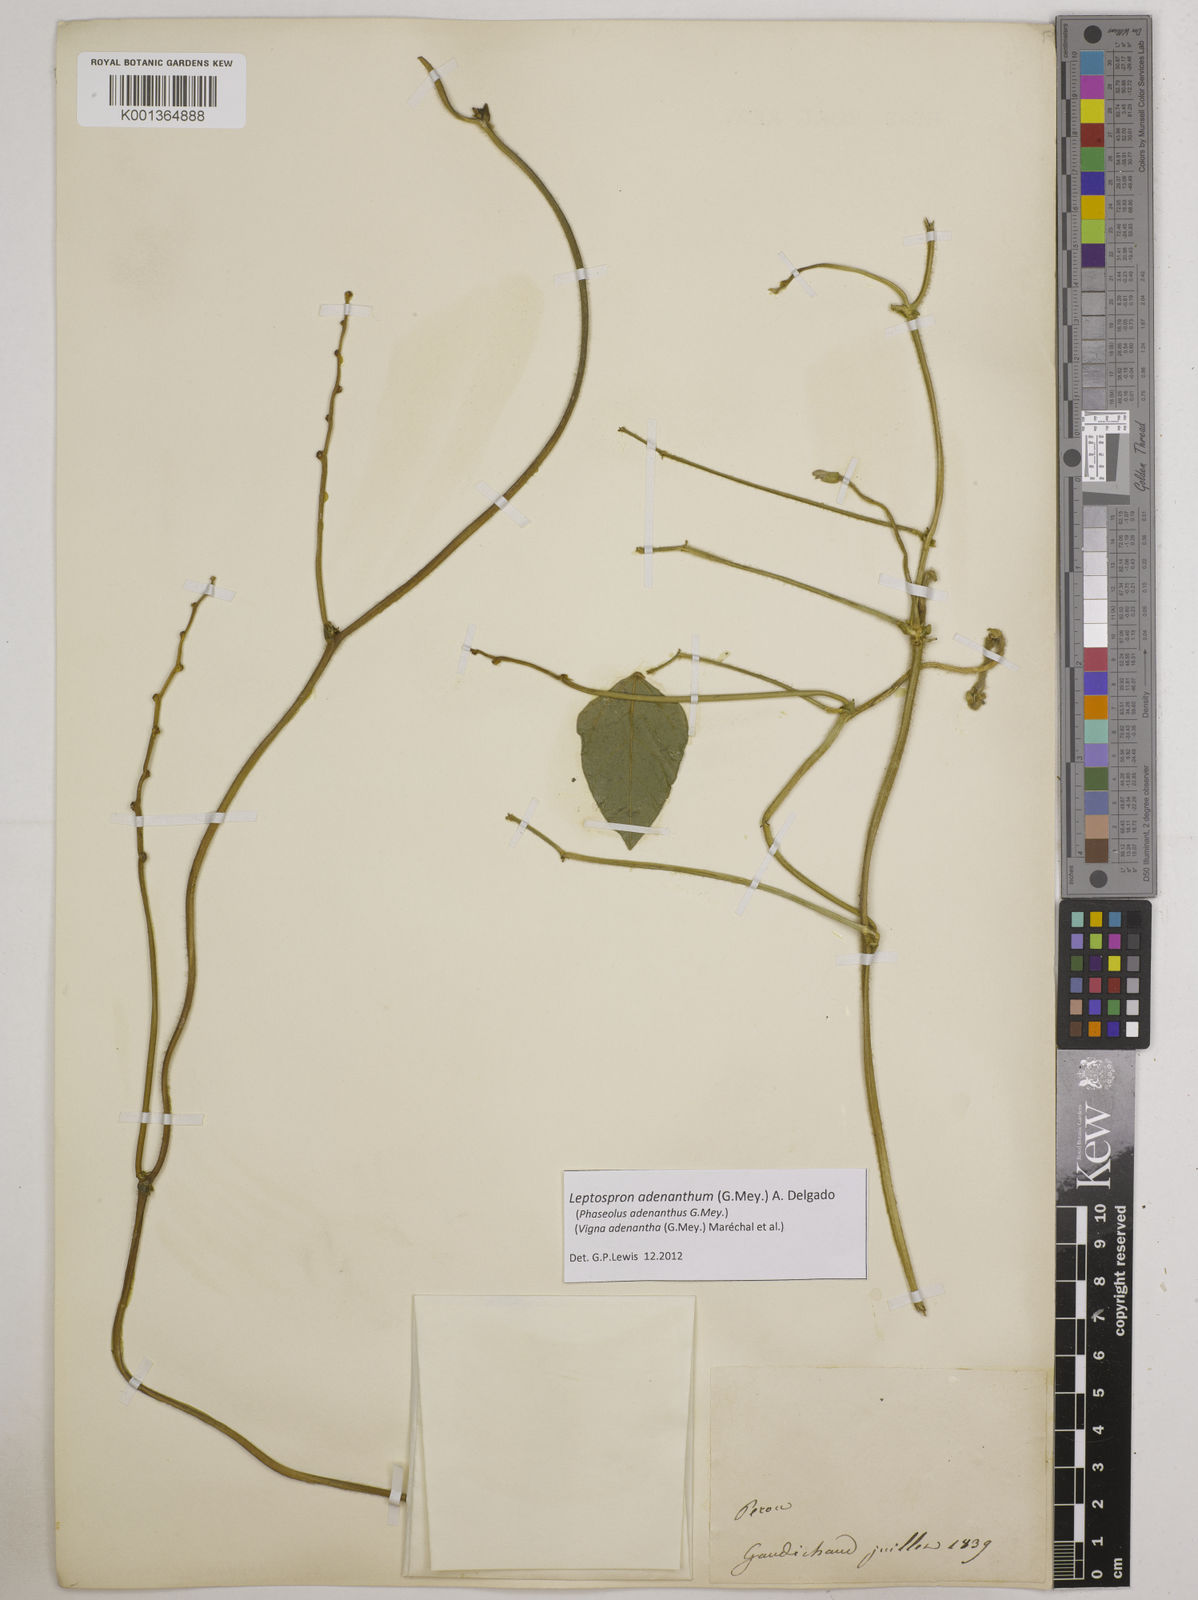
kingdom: Plantae
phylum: Tracheophyta
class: Magnoliopsida
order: Fabales
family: Fabaceae
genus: Leptospron
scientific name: Leptospron adenanthum
